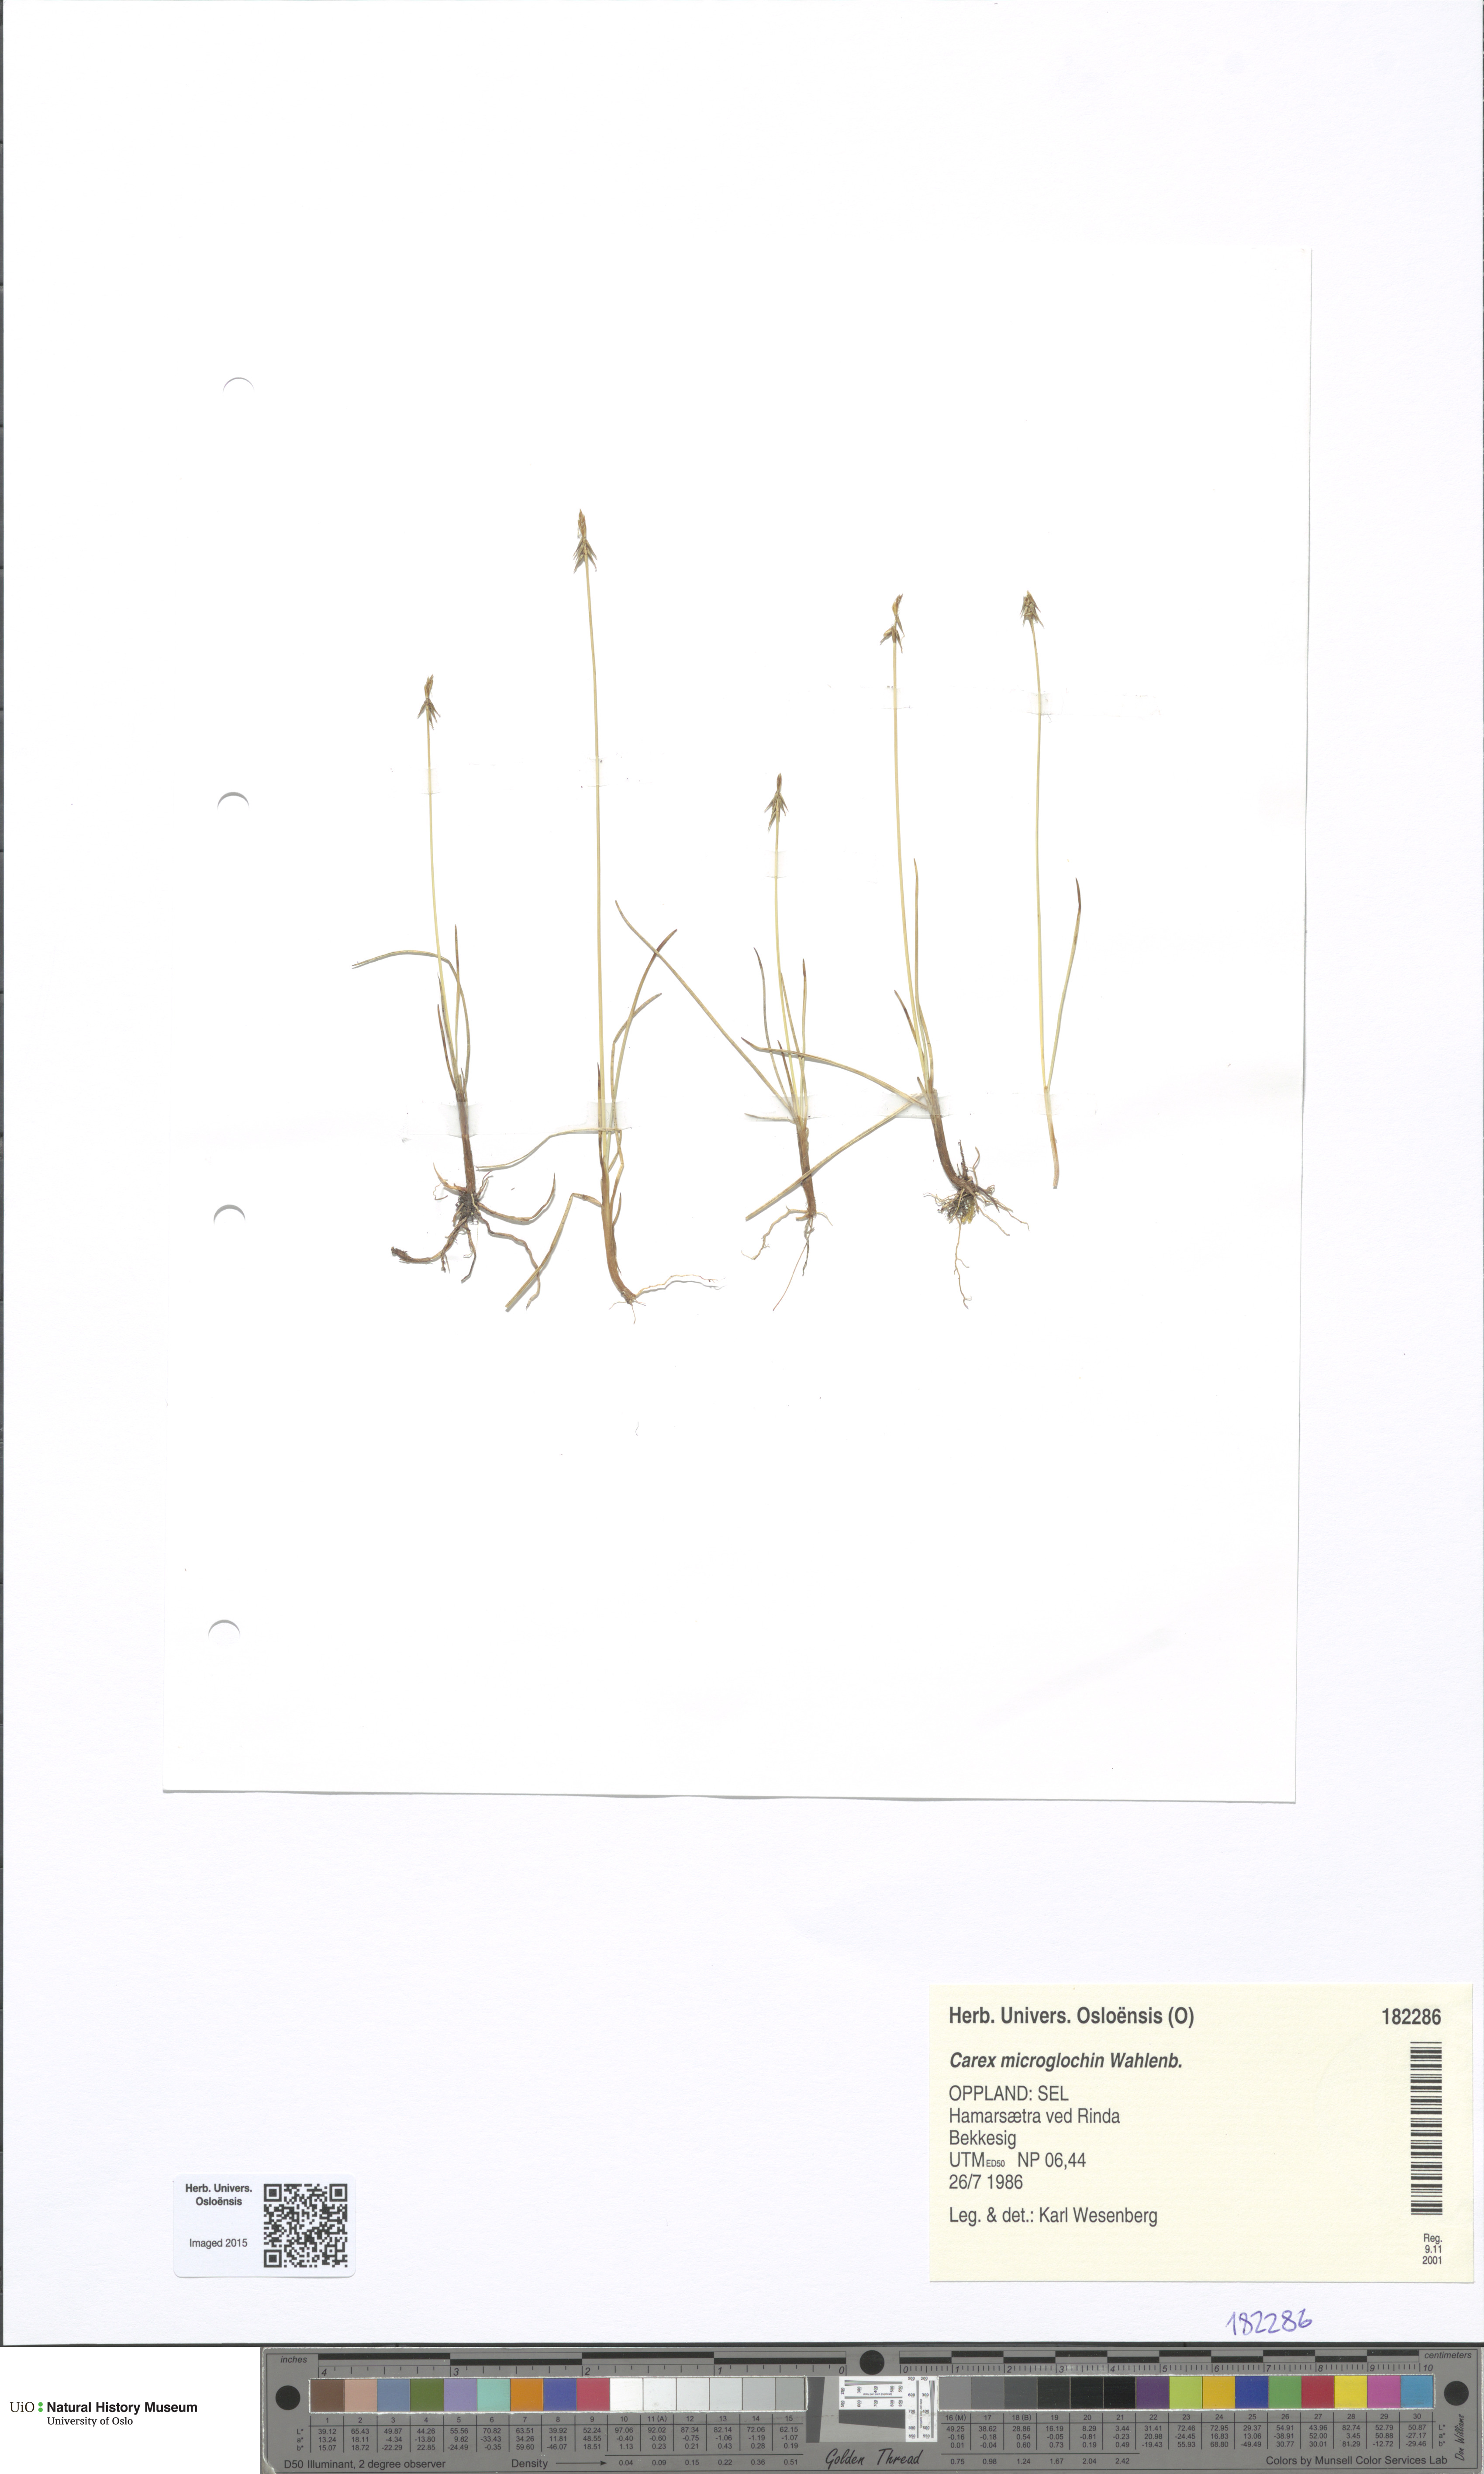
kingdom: Plantae
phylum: Tracheophyta
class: Liliopsida
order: Poales
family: Cyperaceae
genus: Carex
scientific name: Carex microglochin
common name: Bristle sedge
